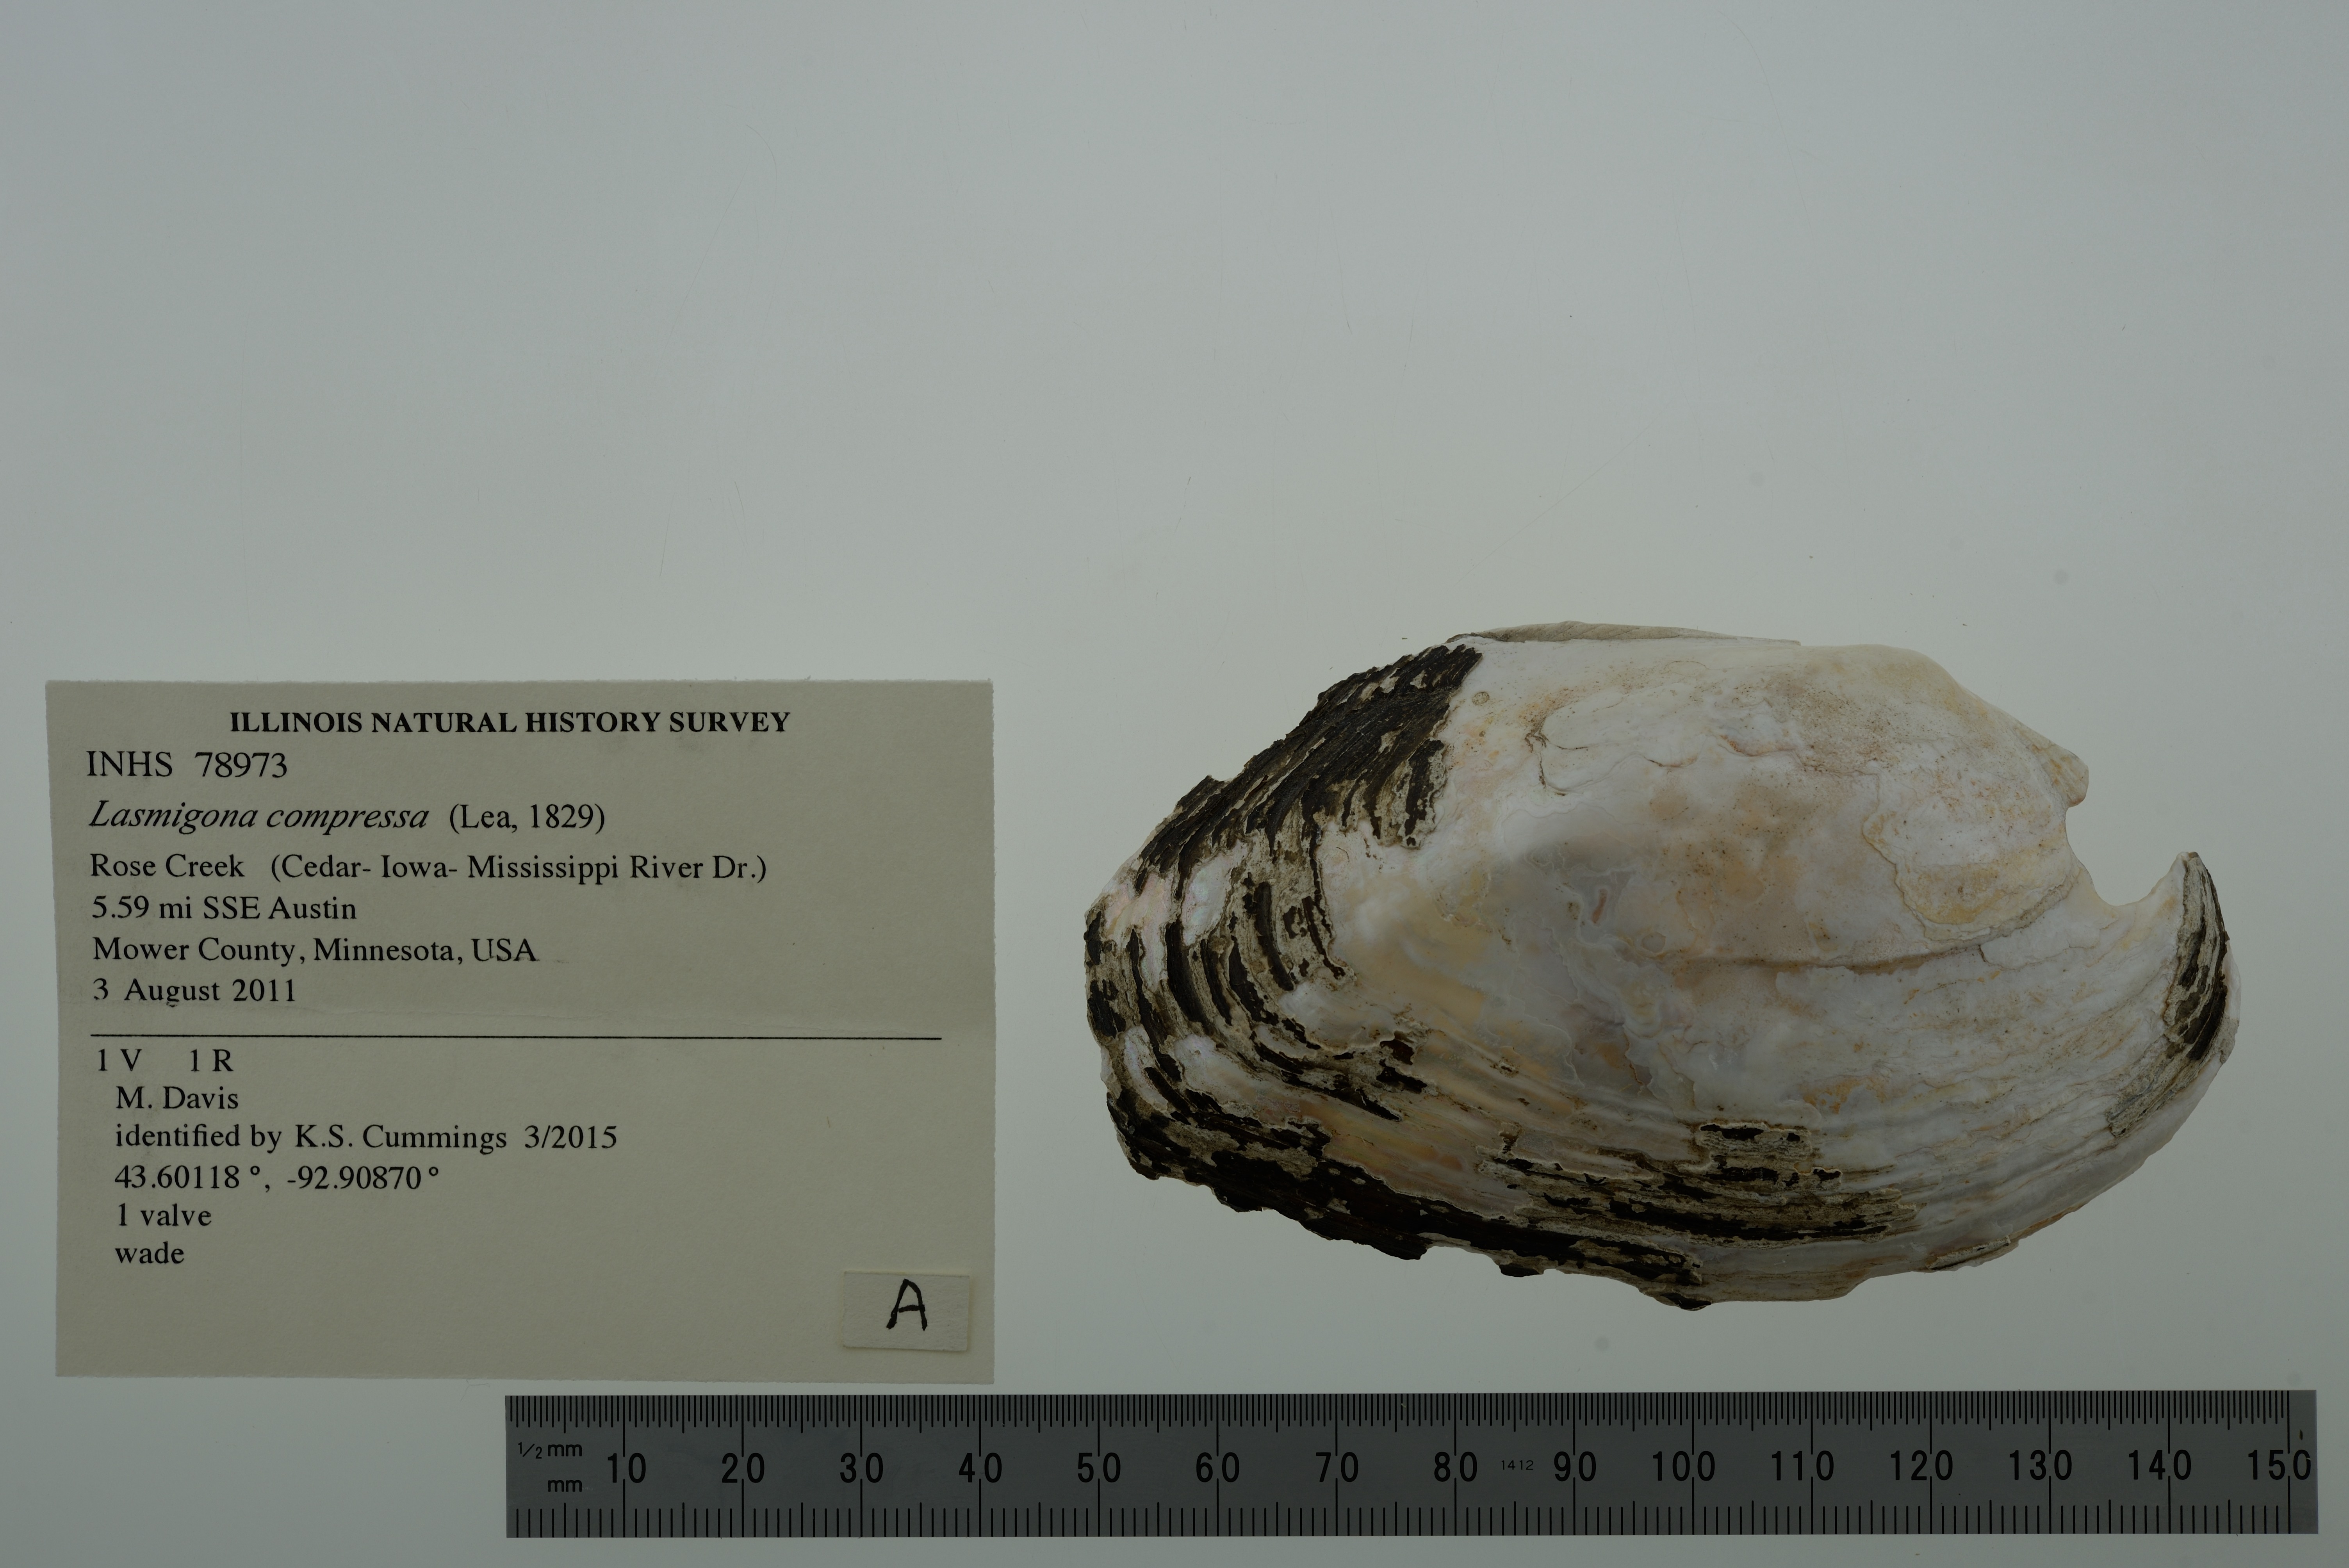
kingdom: Animalia
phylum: Mollusca
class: Bivalvia
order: Unionida
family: Unionidae
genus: Lasmigona
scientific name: Lasmigona compressa
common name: Creek heelsplitter
